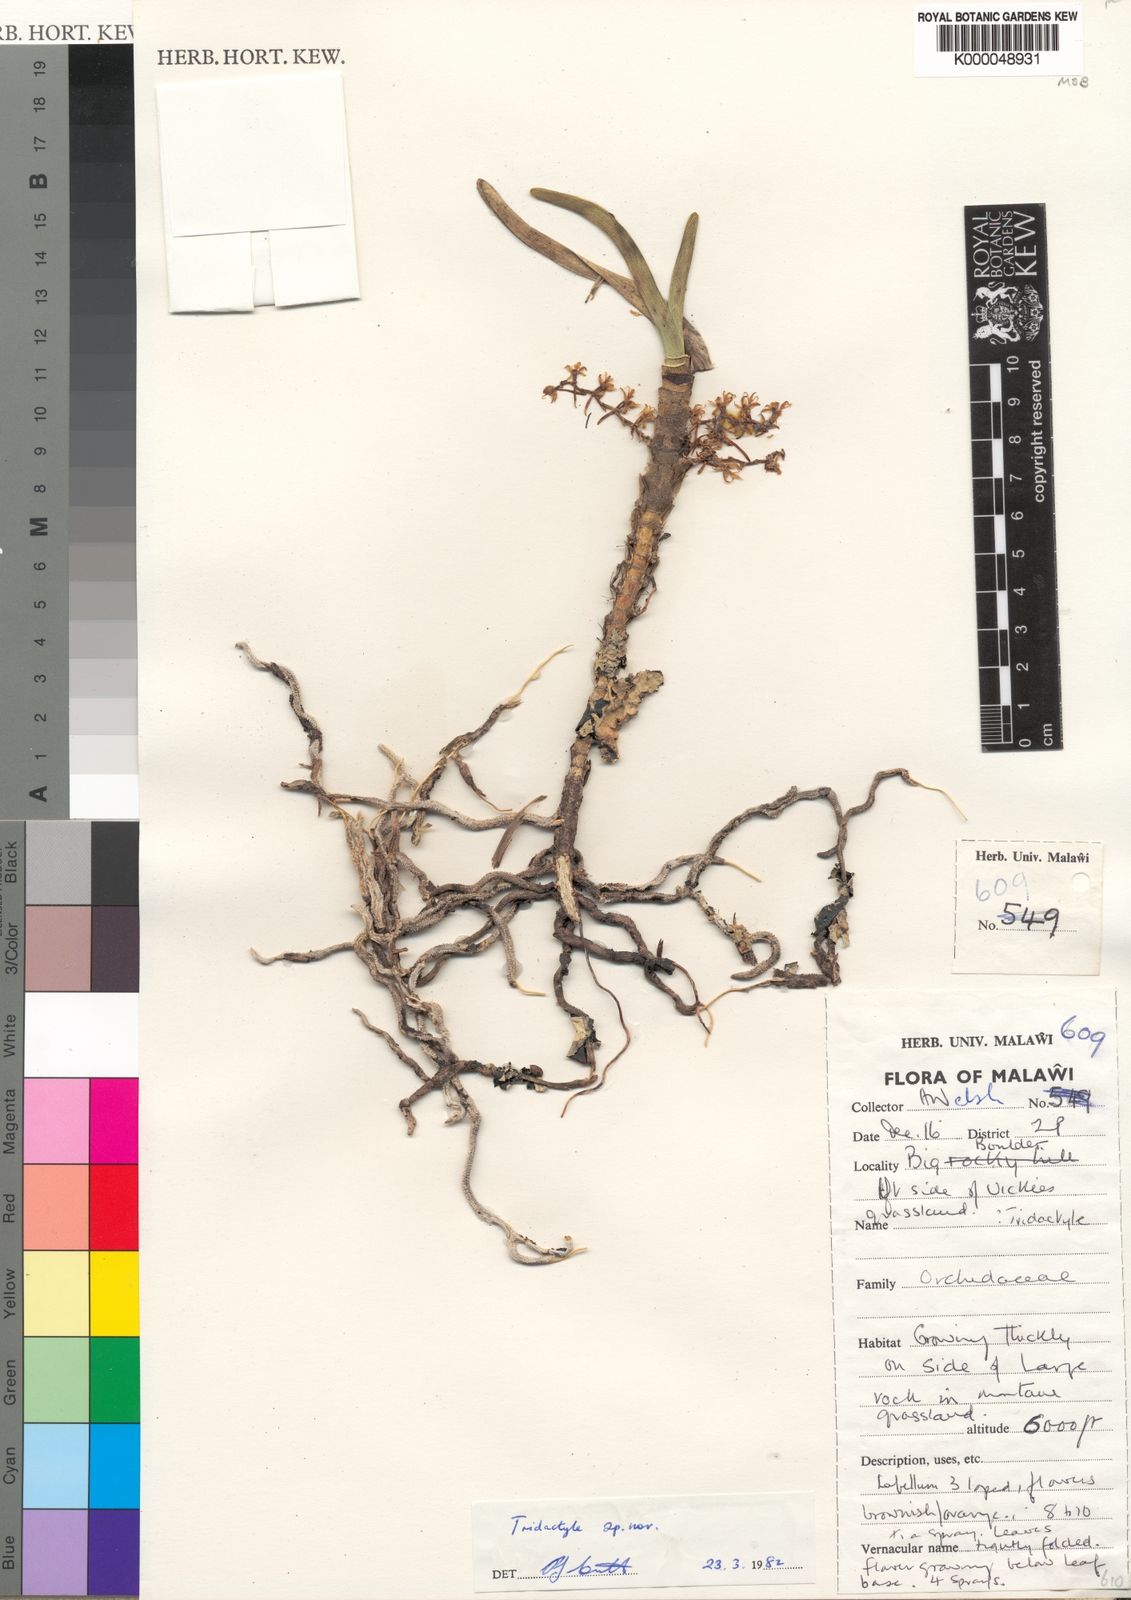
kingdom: Plantae
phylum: Tracheophyta
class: Liliopsida
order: Asparagales
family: Orchidaceae
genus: Tridactyle
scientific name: Tridactyle verrucosa
